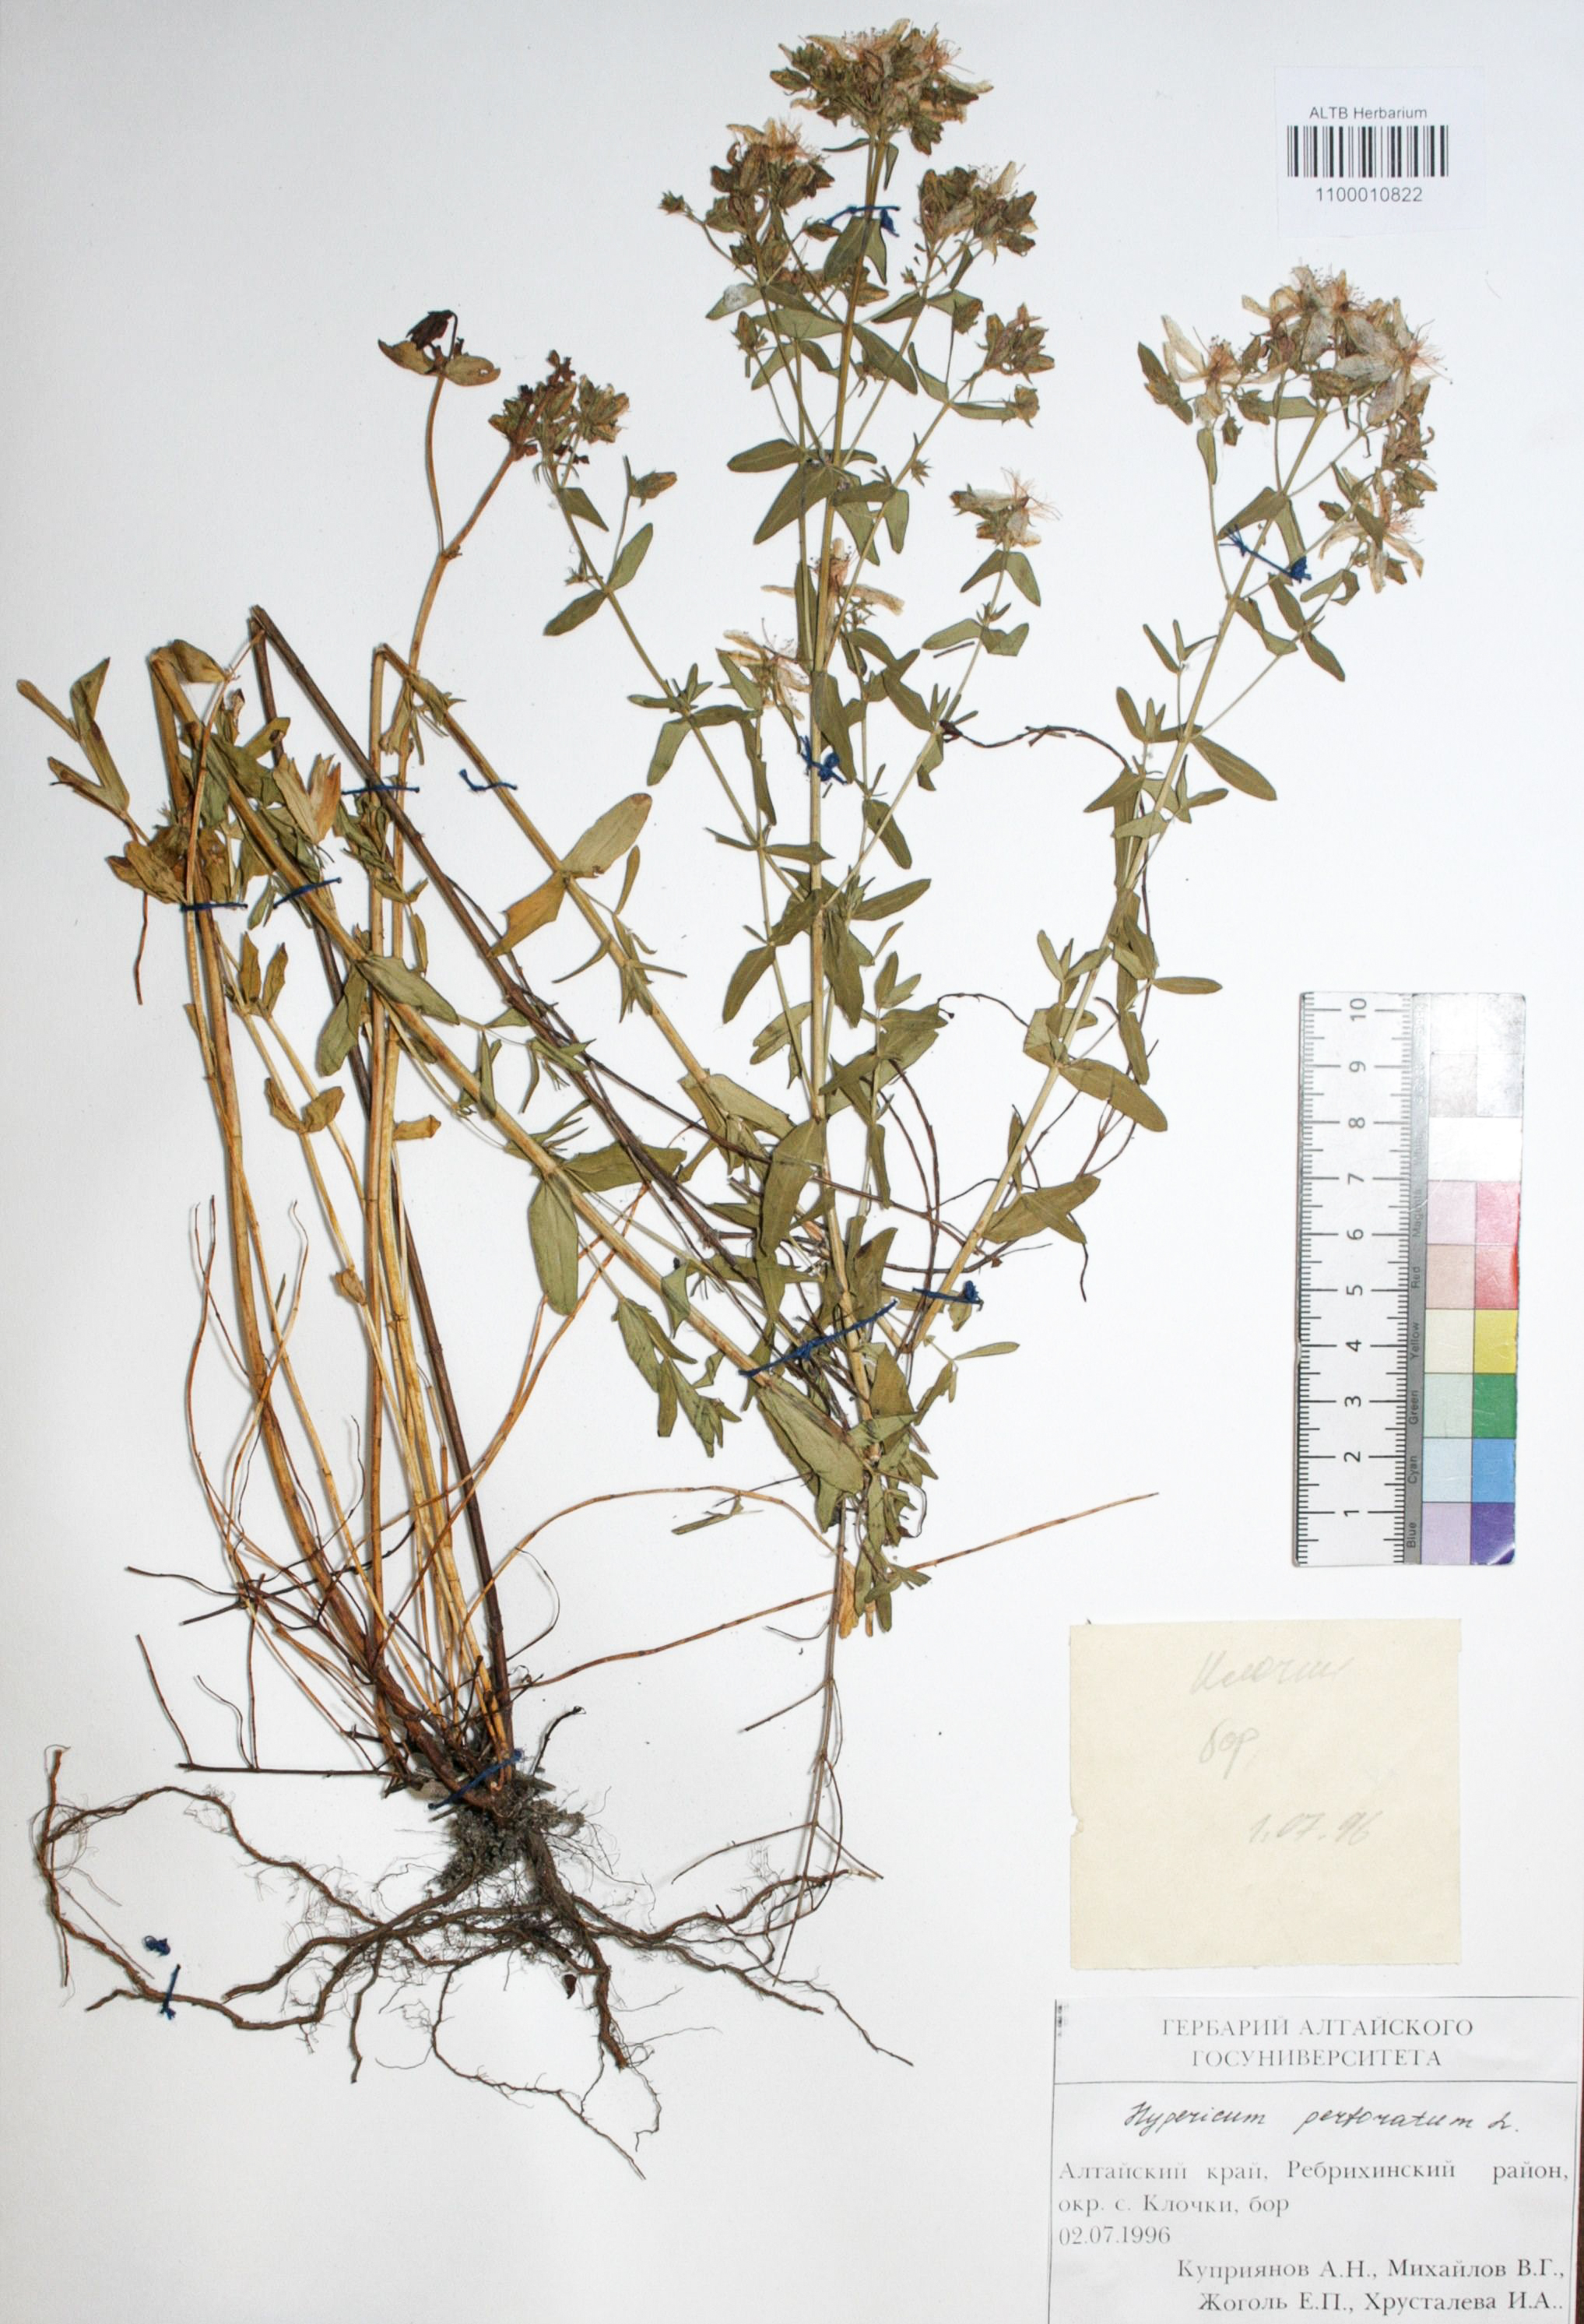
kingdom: Plantae
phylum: Tracheophyta
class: Magnoliopsida
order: Malpighiales
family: Hypericaceae
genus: Hypericum
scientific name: Hypericum perforatum
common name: Common st. johnswort
